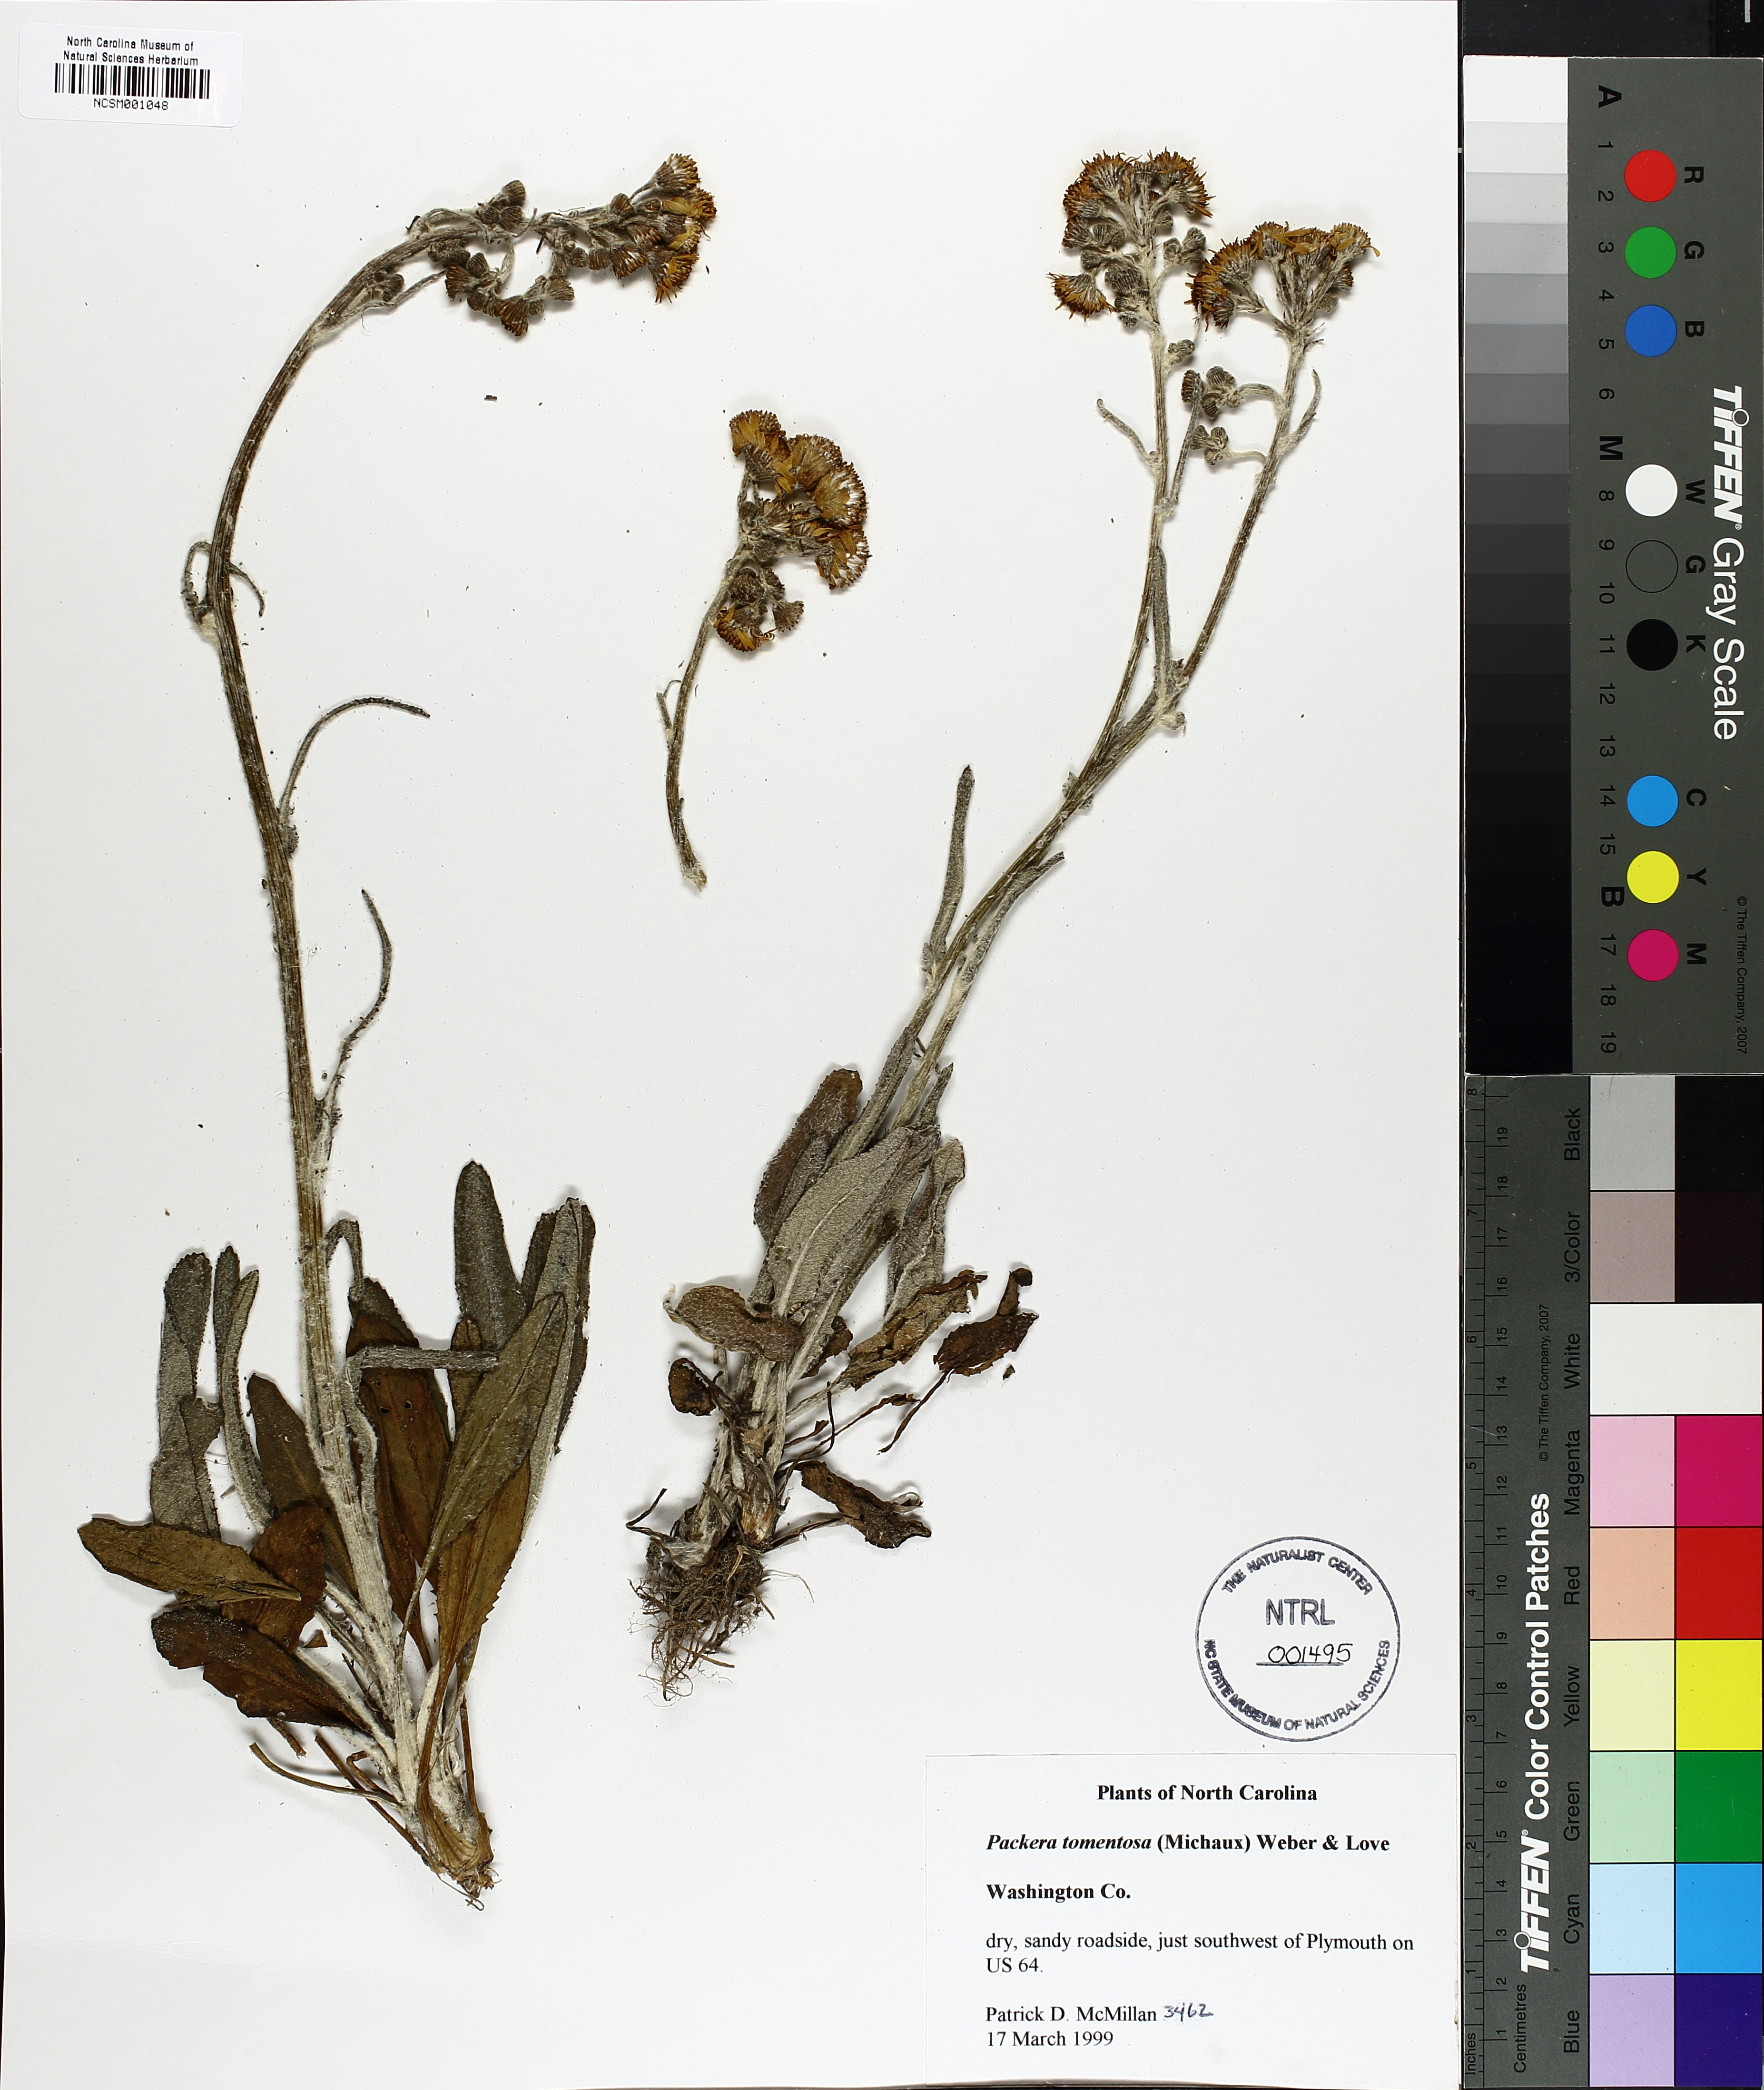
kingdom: Plantae
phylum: Tracheophyta
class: Magnoliopsida
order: Asterales
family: Asteraceae
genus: Packera
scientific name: Packera dubia
